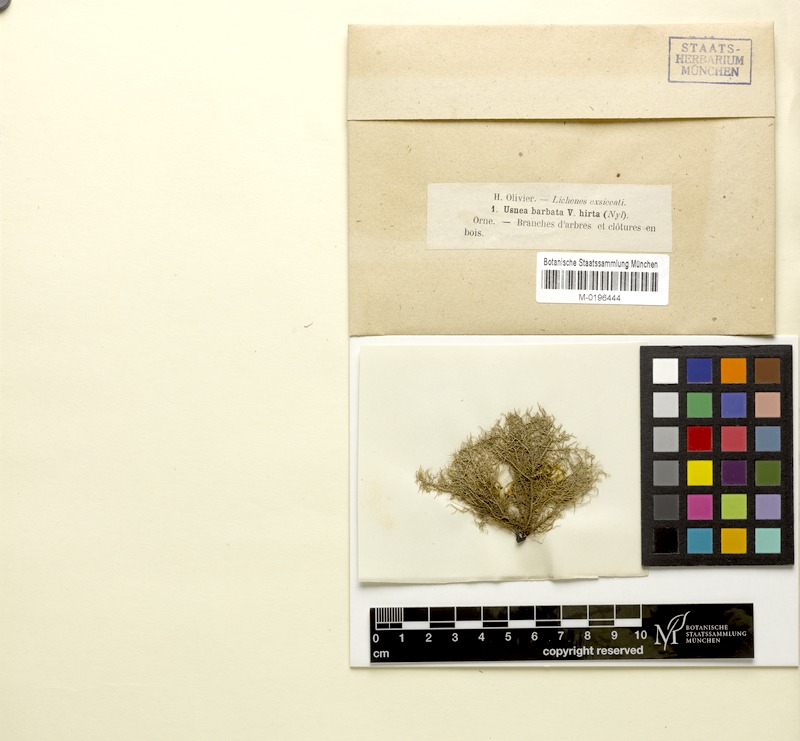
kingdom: Fungi
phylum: Ascomycota
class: Lecanoromycetes
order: Lecanorales
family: Parmeliaceae
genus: Usnea
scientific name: Usnea wasmuthii
